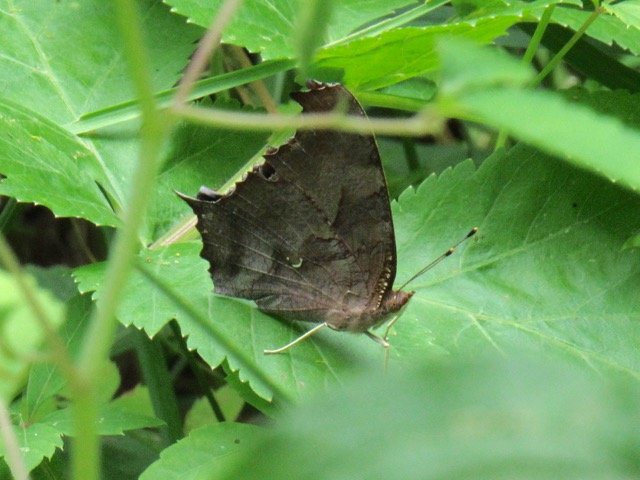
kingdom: Animalia
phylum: Arthropoda
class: Insecta
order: Lepidoptera
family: Nymphalidae
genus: Polygonia
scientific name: Polygonia interrogationis
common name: Question Mark
